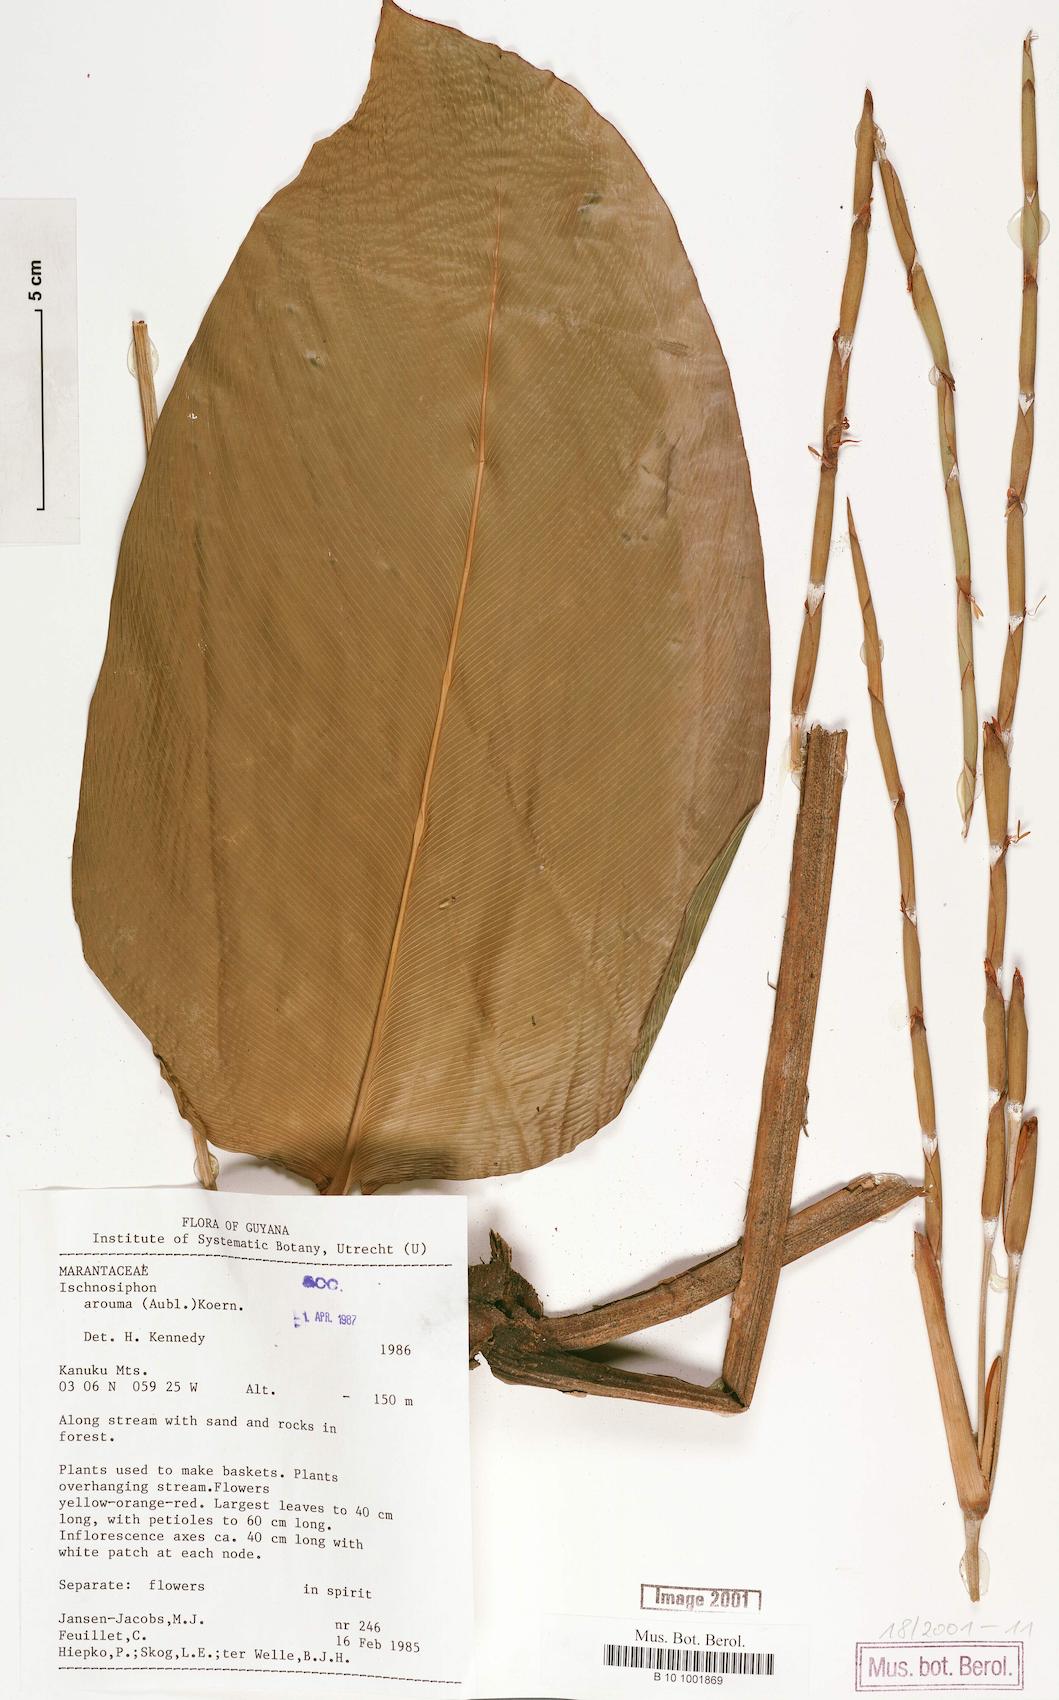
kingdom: Plantae
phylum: Tracheophyta
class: Liliopsida
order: Zingiberales
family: Marantaceae
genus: Ischnosiphon
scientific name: Ischnosiphon arouma
